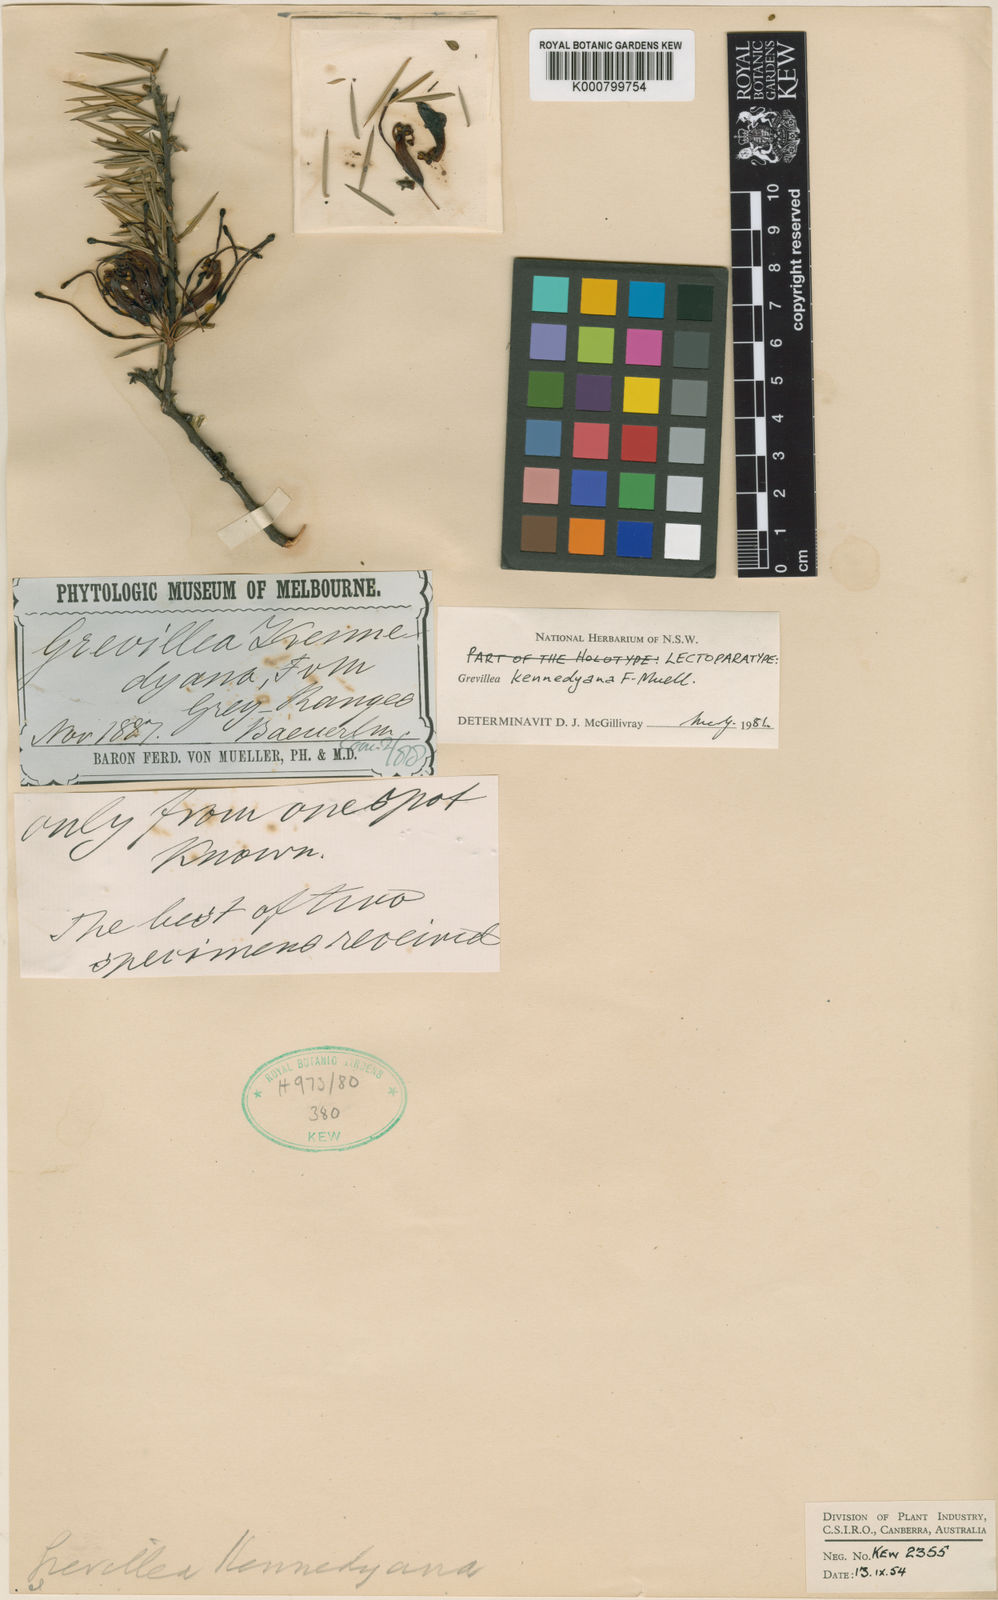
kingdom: Plantae
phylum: Tracheophyta
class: Magnoliopsida
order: Proteales
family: Proteaceae
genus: Grevillea
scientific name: Grevillea kennedyana
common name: Flame spider-flower
